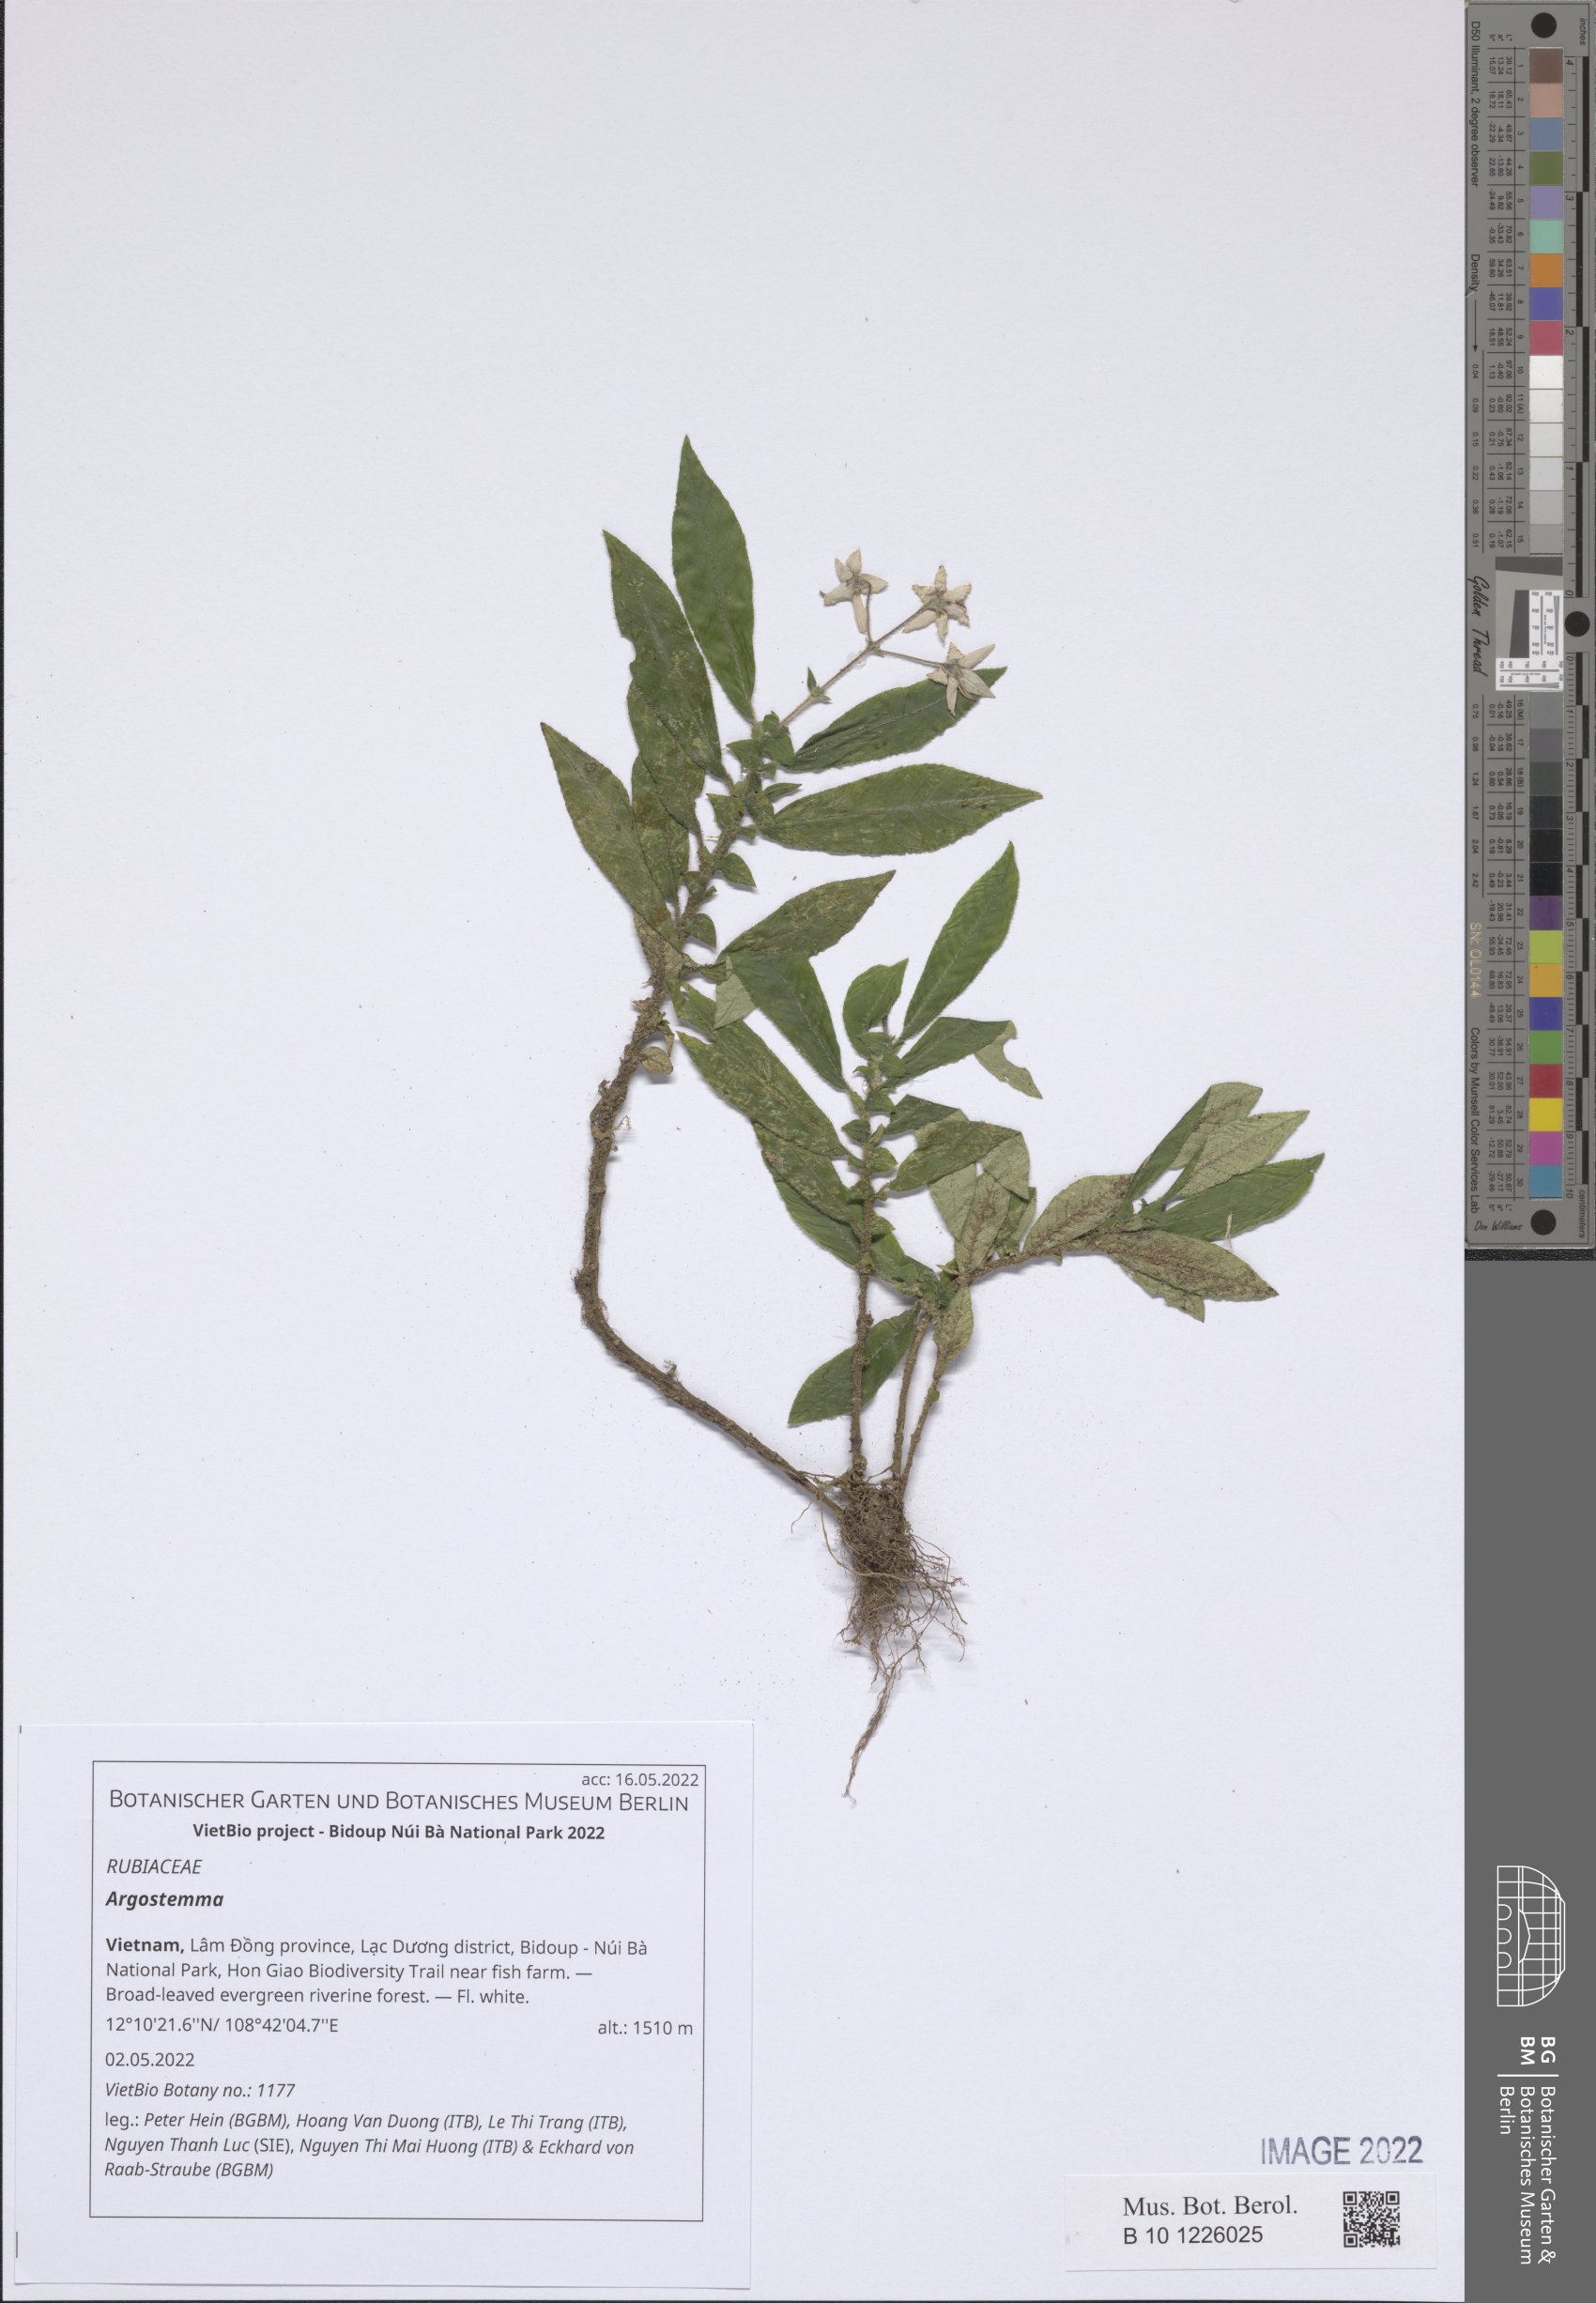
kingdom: Plantae
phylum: Tracheophyta
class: Magnoliopsida
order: Gentianales
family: Rubiaceae
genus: Argostemma
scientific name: Argostemma
